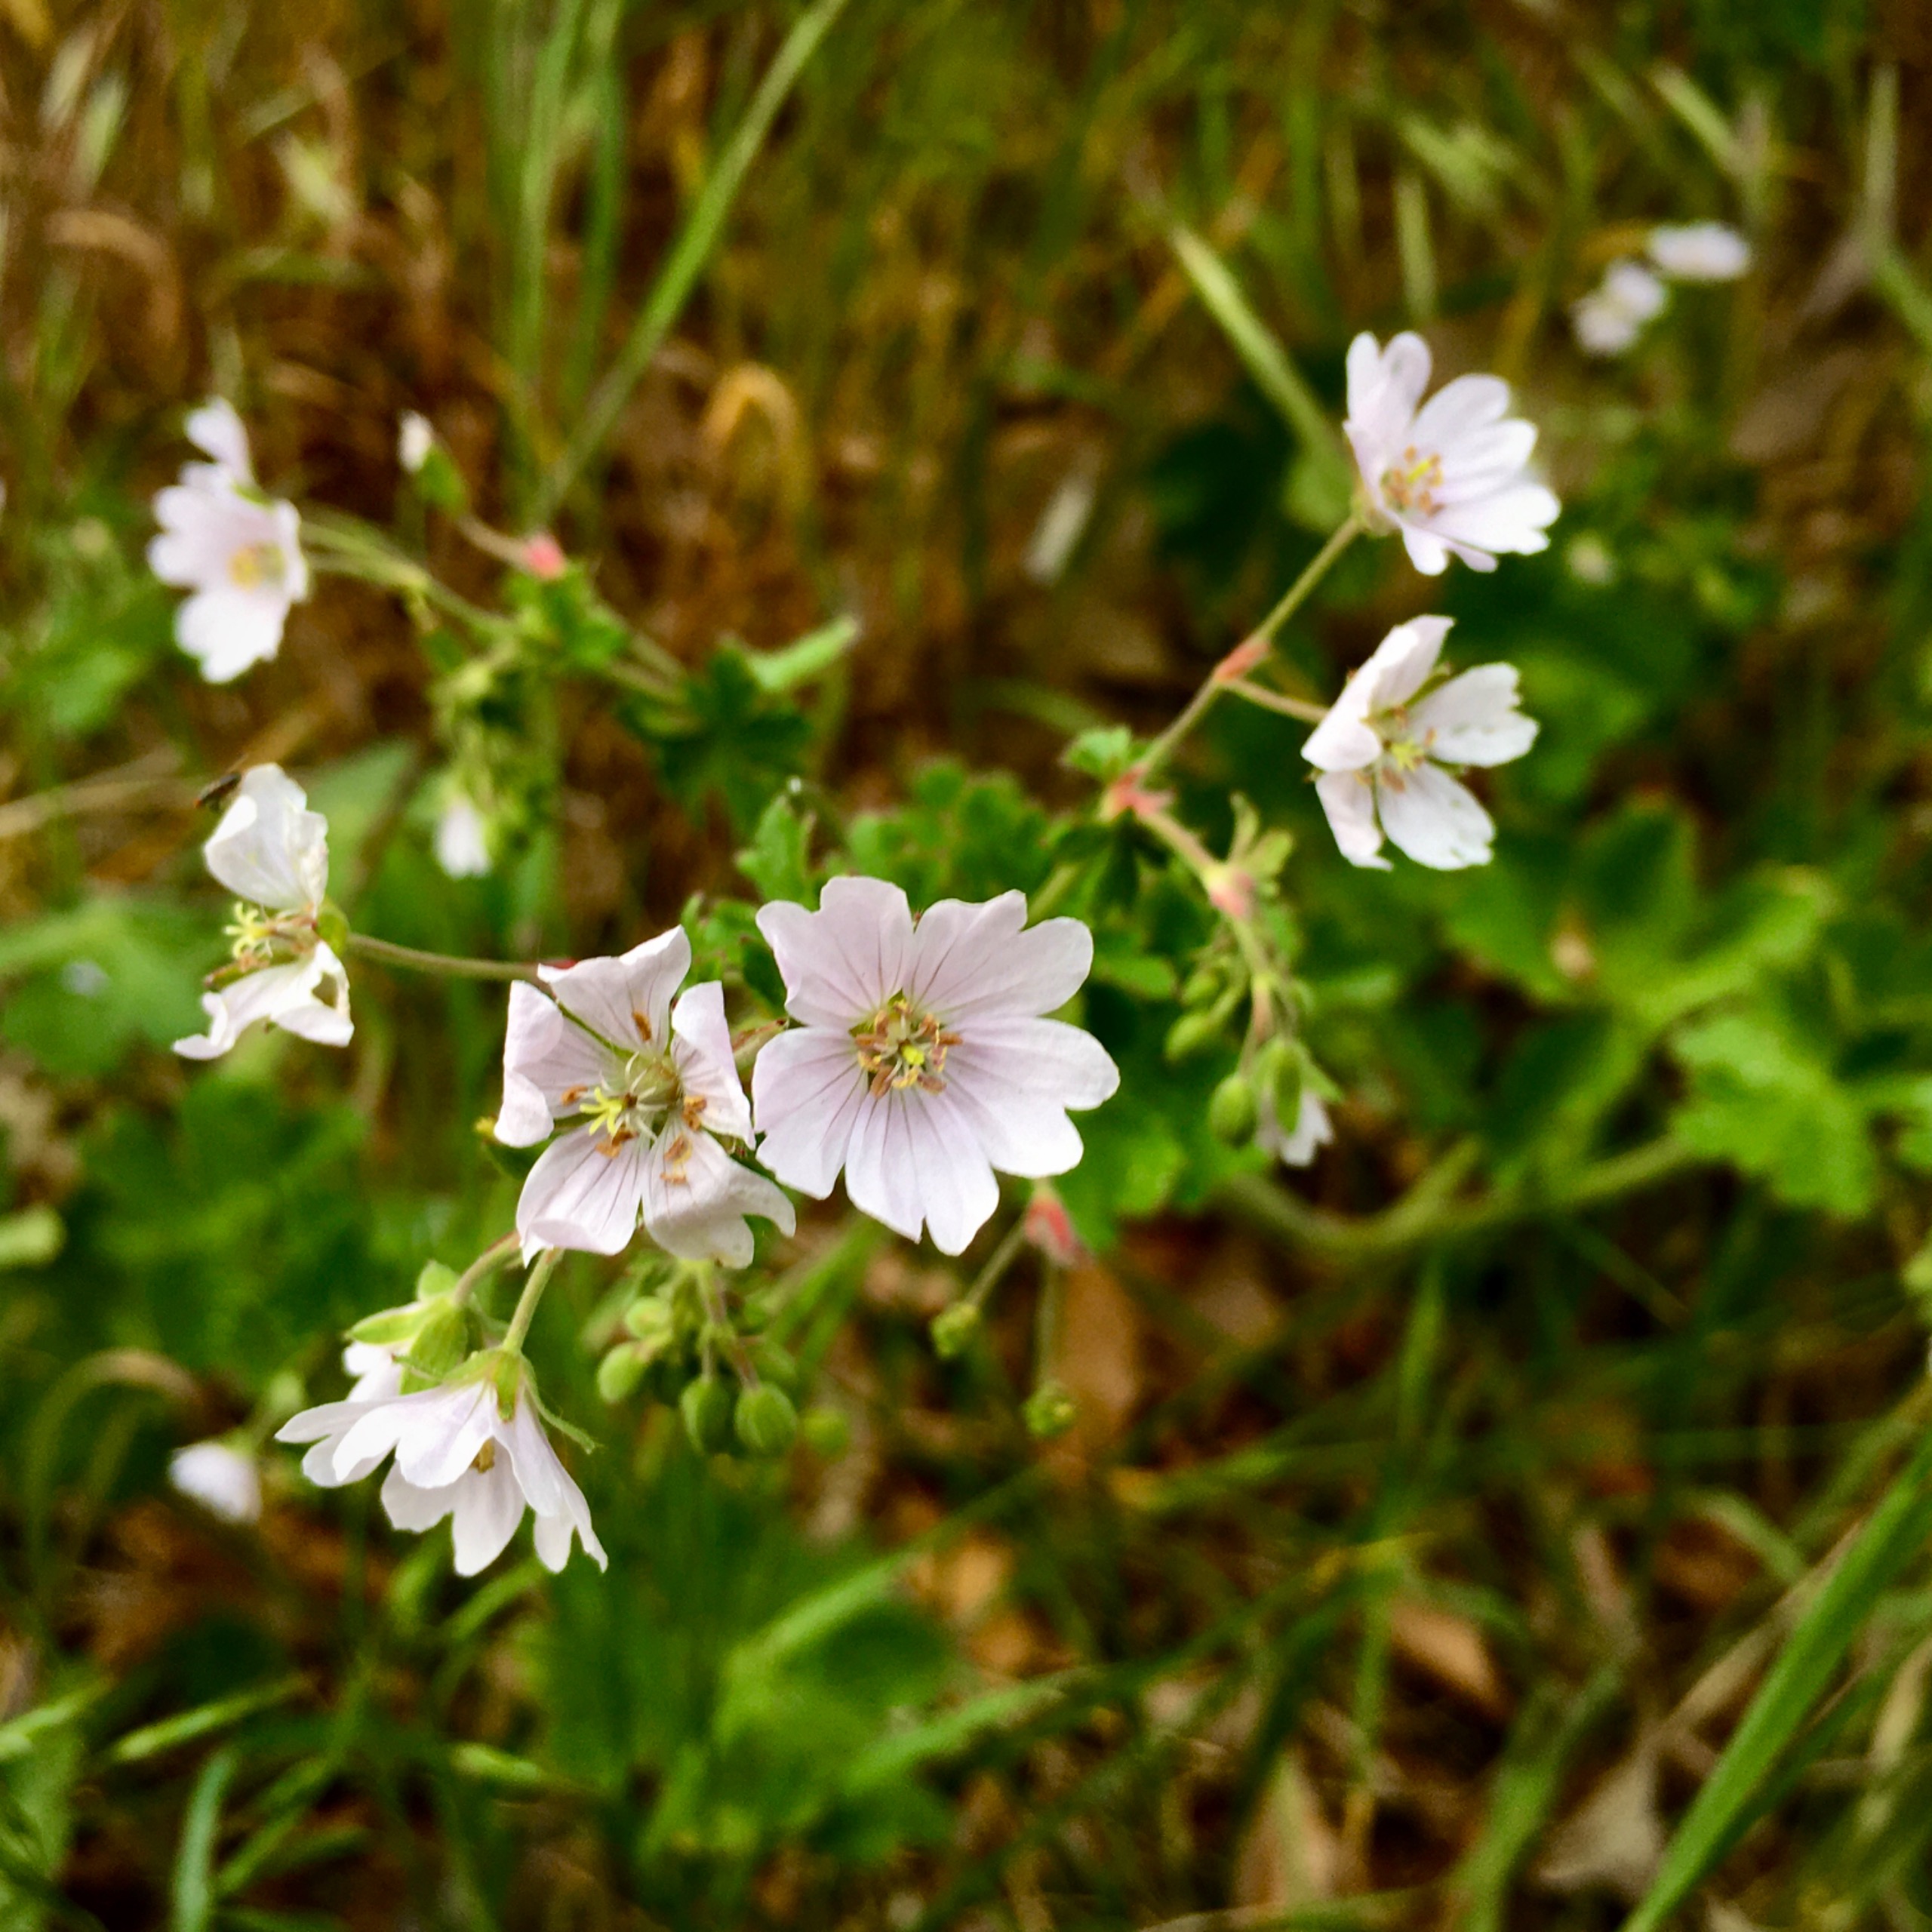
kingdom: Plantae
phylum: Tracheophyta
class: Magnoliopsida
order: Geraniales
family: Geraniaceae
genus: Geranium
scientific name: Geranium pyrenaicum
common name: Pyrenæisk storkenæb
